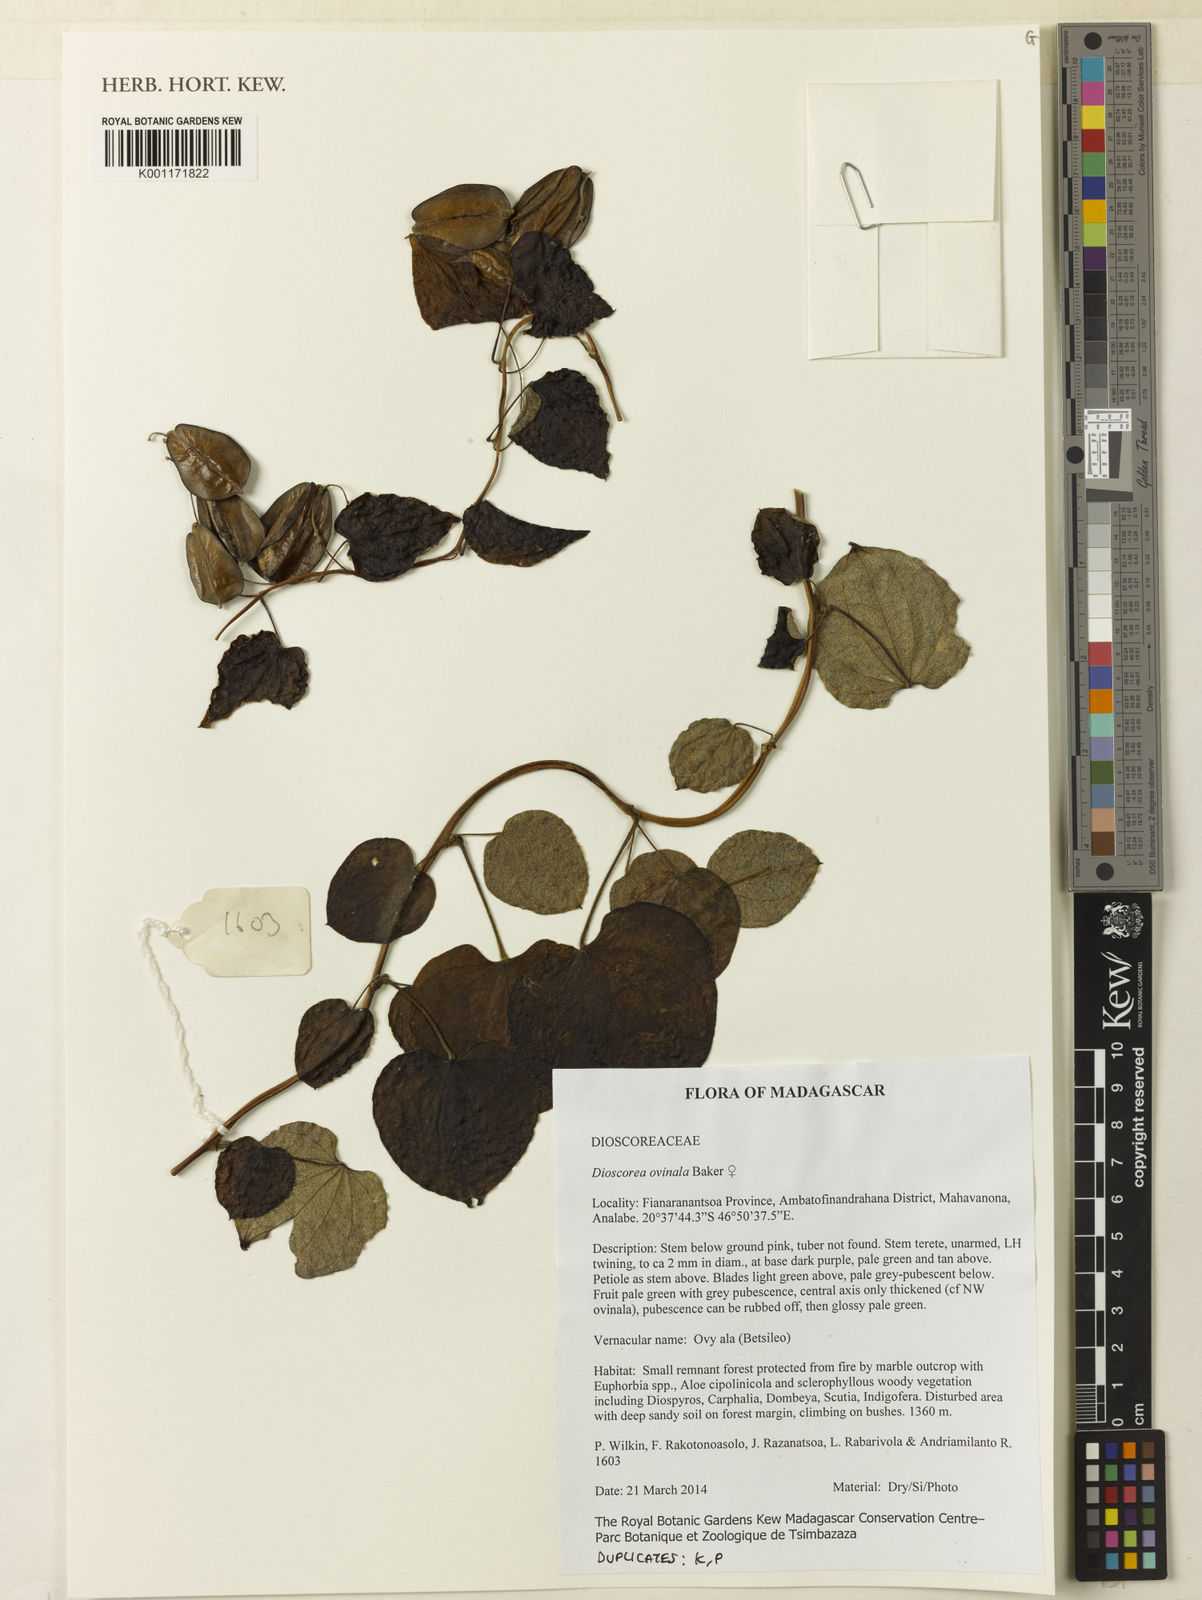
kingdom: Plantae
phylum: Tracheophyta
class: Liliopsida
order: Dioscoreales
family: Dioscoreaceae
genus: Dioscorea
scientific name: Dioscorea ovinala
